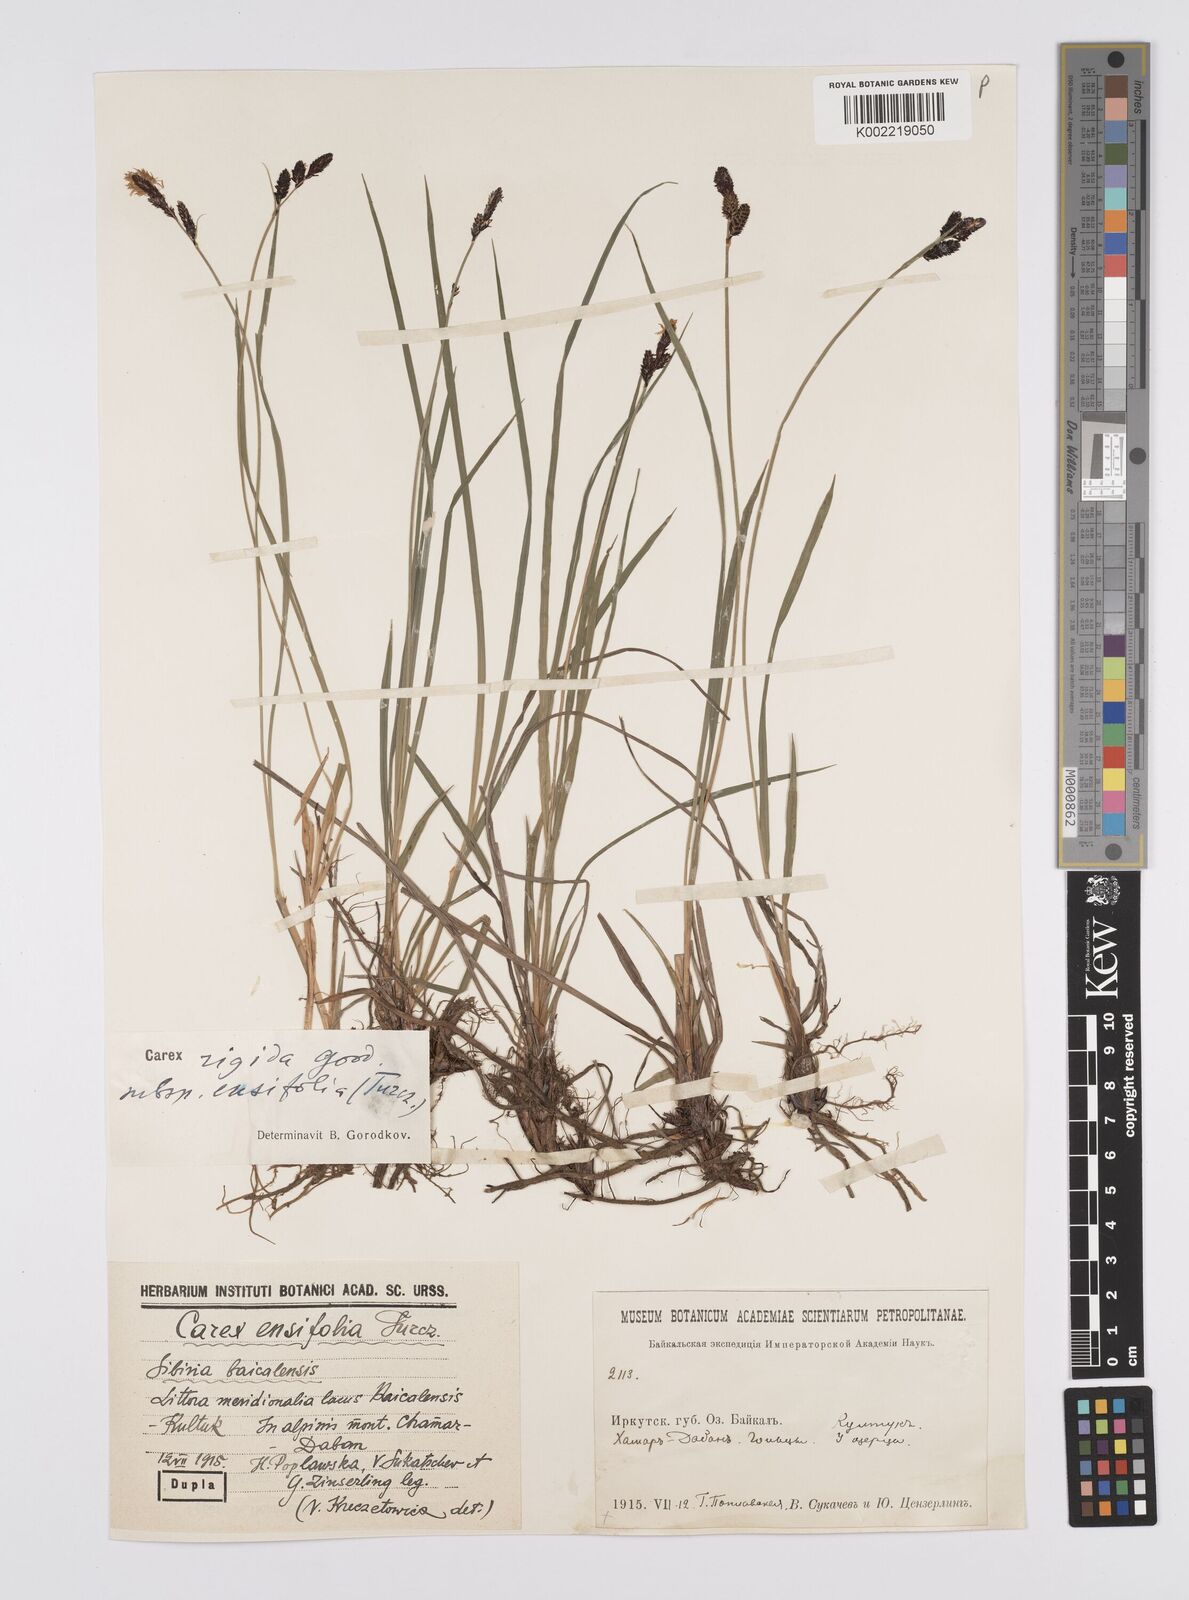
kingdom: Plantae
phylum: Tracheophyta
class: Liliopsida
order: Poales
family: Cyperaceae
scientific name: Cyperaceae
